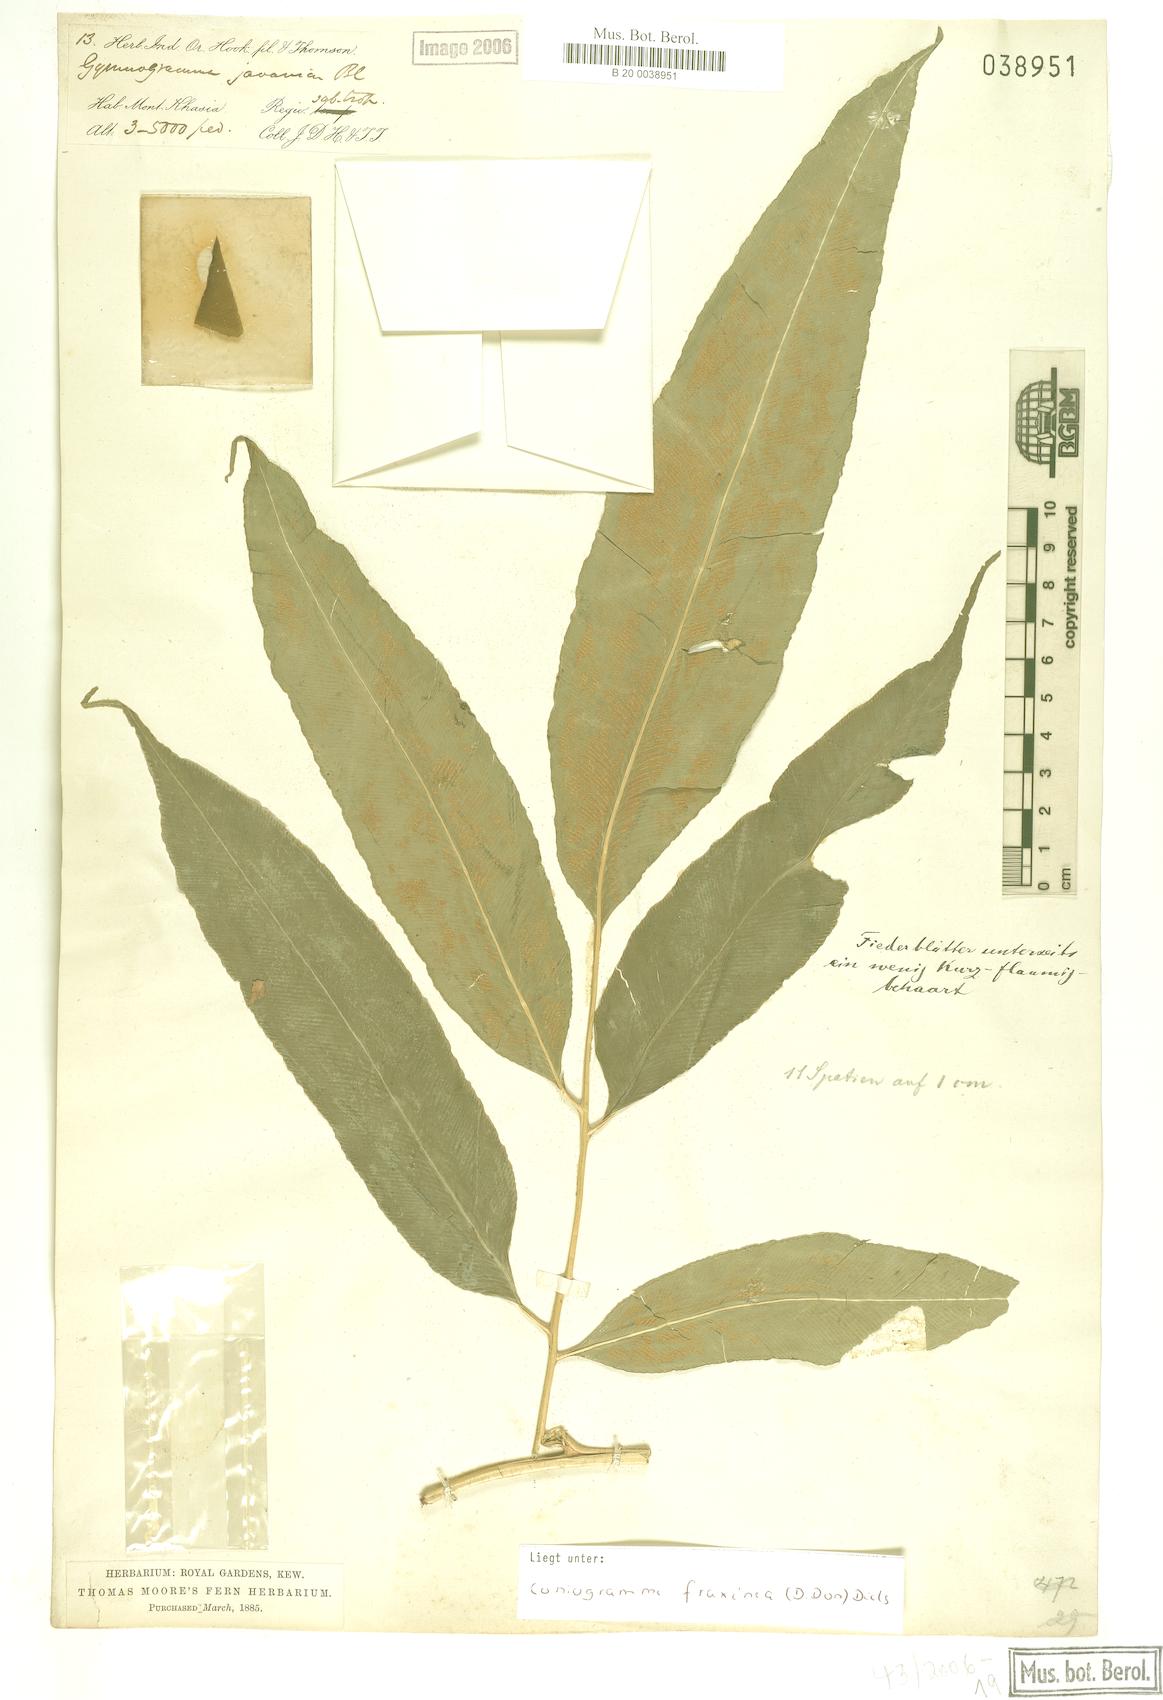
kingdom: Plantae
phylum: Tracheophyta
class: Polypodiopsida
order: Polypodiales
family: Pteridaceae
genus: Coniogramme
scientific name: Coniogramme fraxinea
